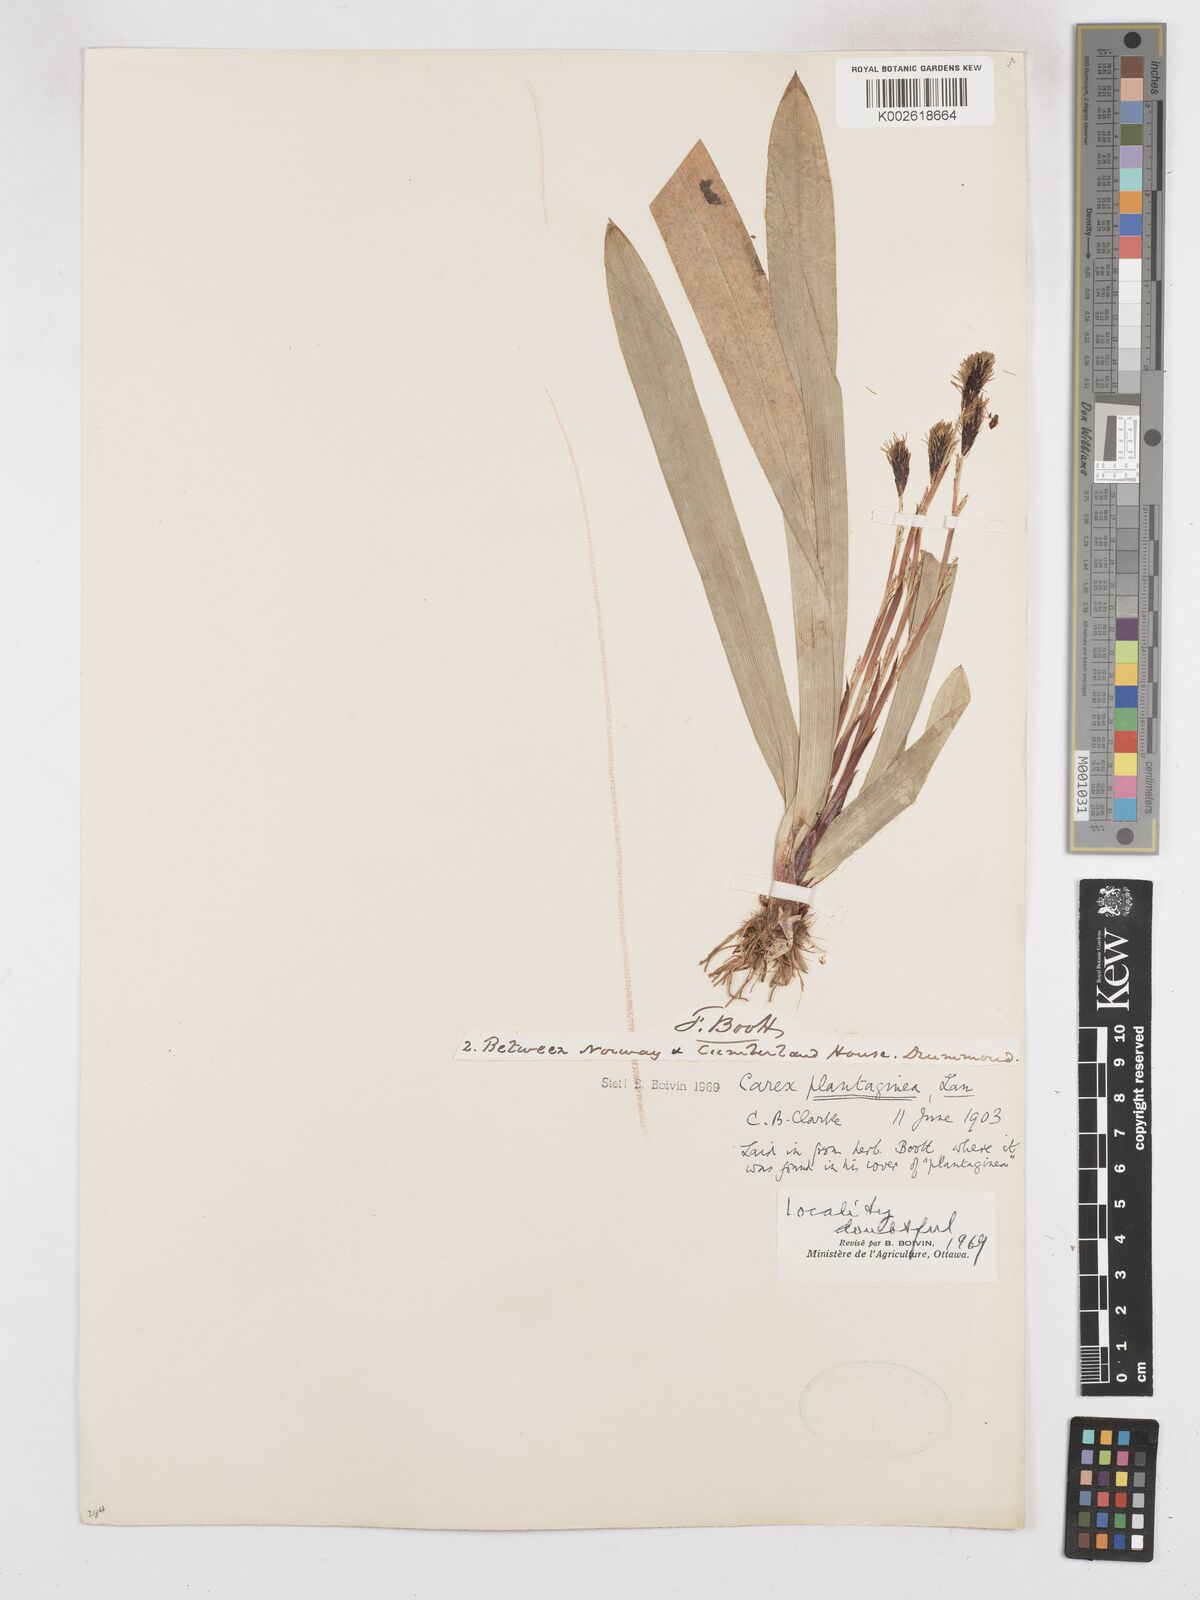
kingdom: Plantae
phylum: Tracheophyta
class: Liliopsida
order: Poales
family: Cyperaceae
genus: Carex
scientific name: Carex plantaginea
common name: Plantain-leaved sedge
